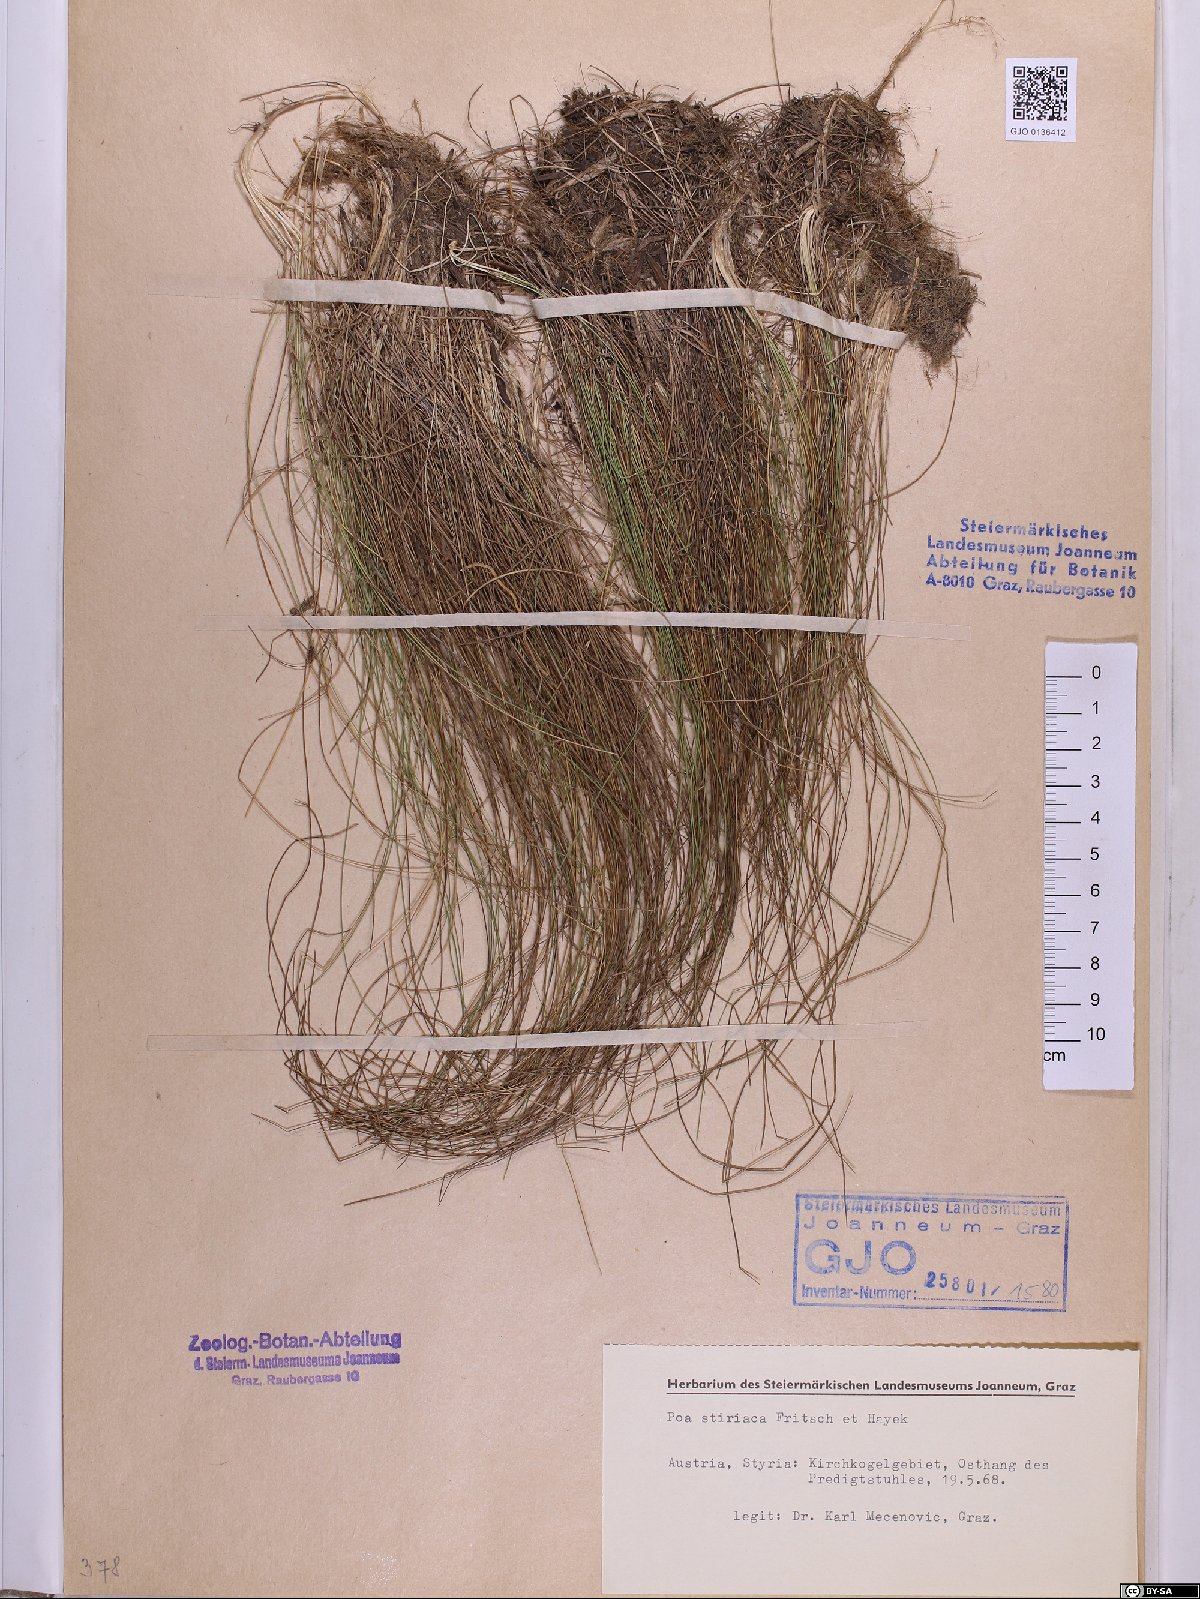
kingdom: Plantae
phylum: Tracheophyta
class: Liliopsida
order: Poales
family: Poaceae
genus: Poa
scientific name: Poa stiriaca
